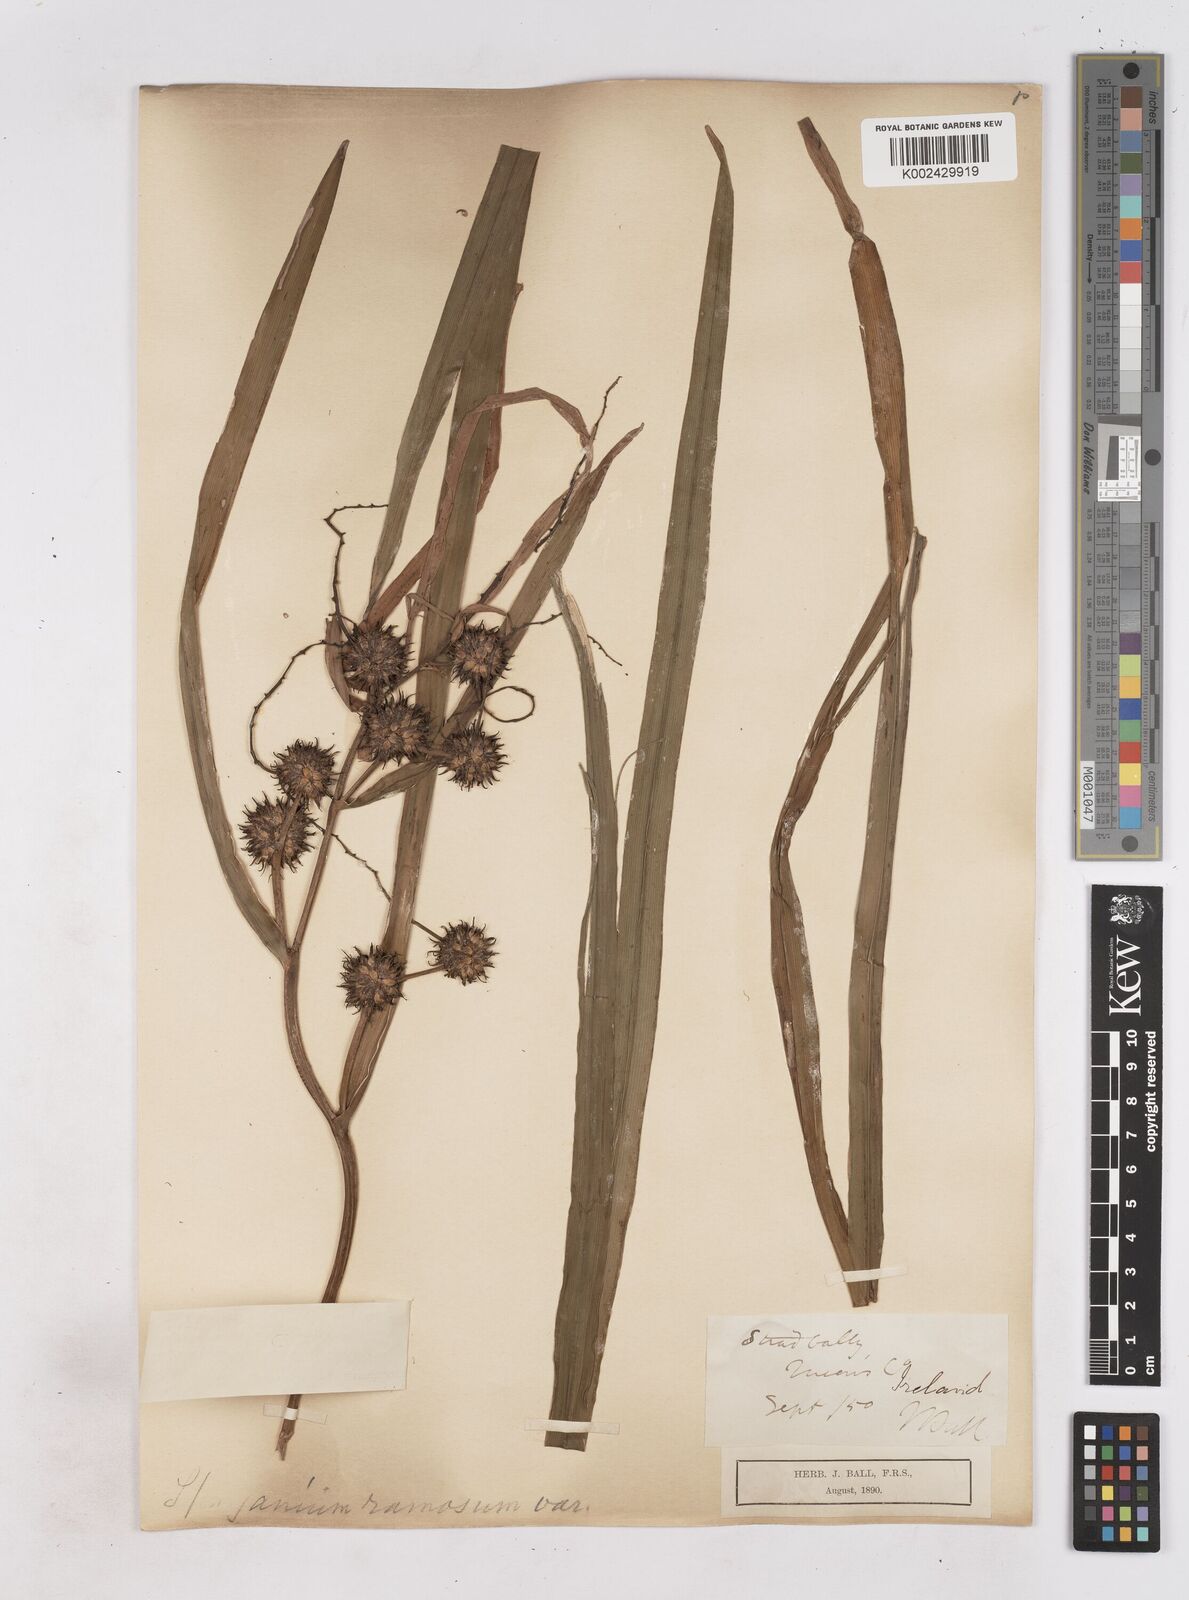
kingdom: Plantae
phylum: Tracheophyta
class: Liliopsida
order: Poales
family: Typhaceae
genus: Sparganium
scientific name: Sparganium erectum
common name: Branched bur-reed
